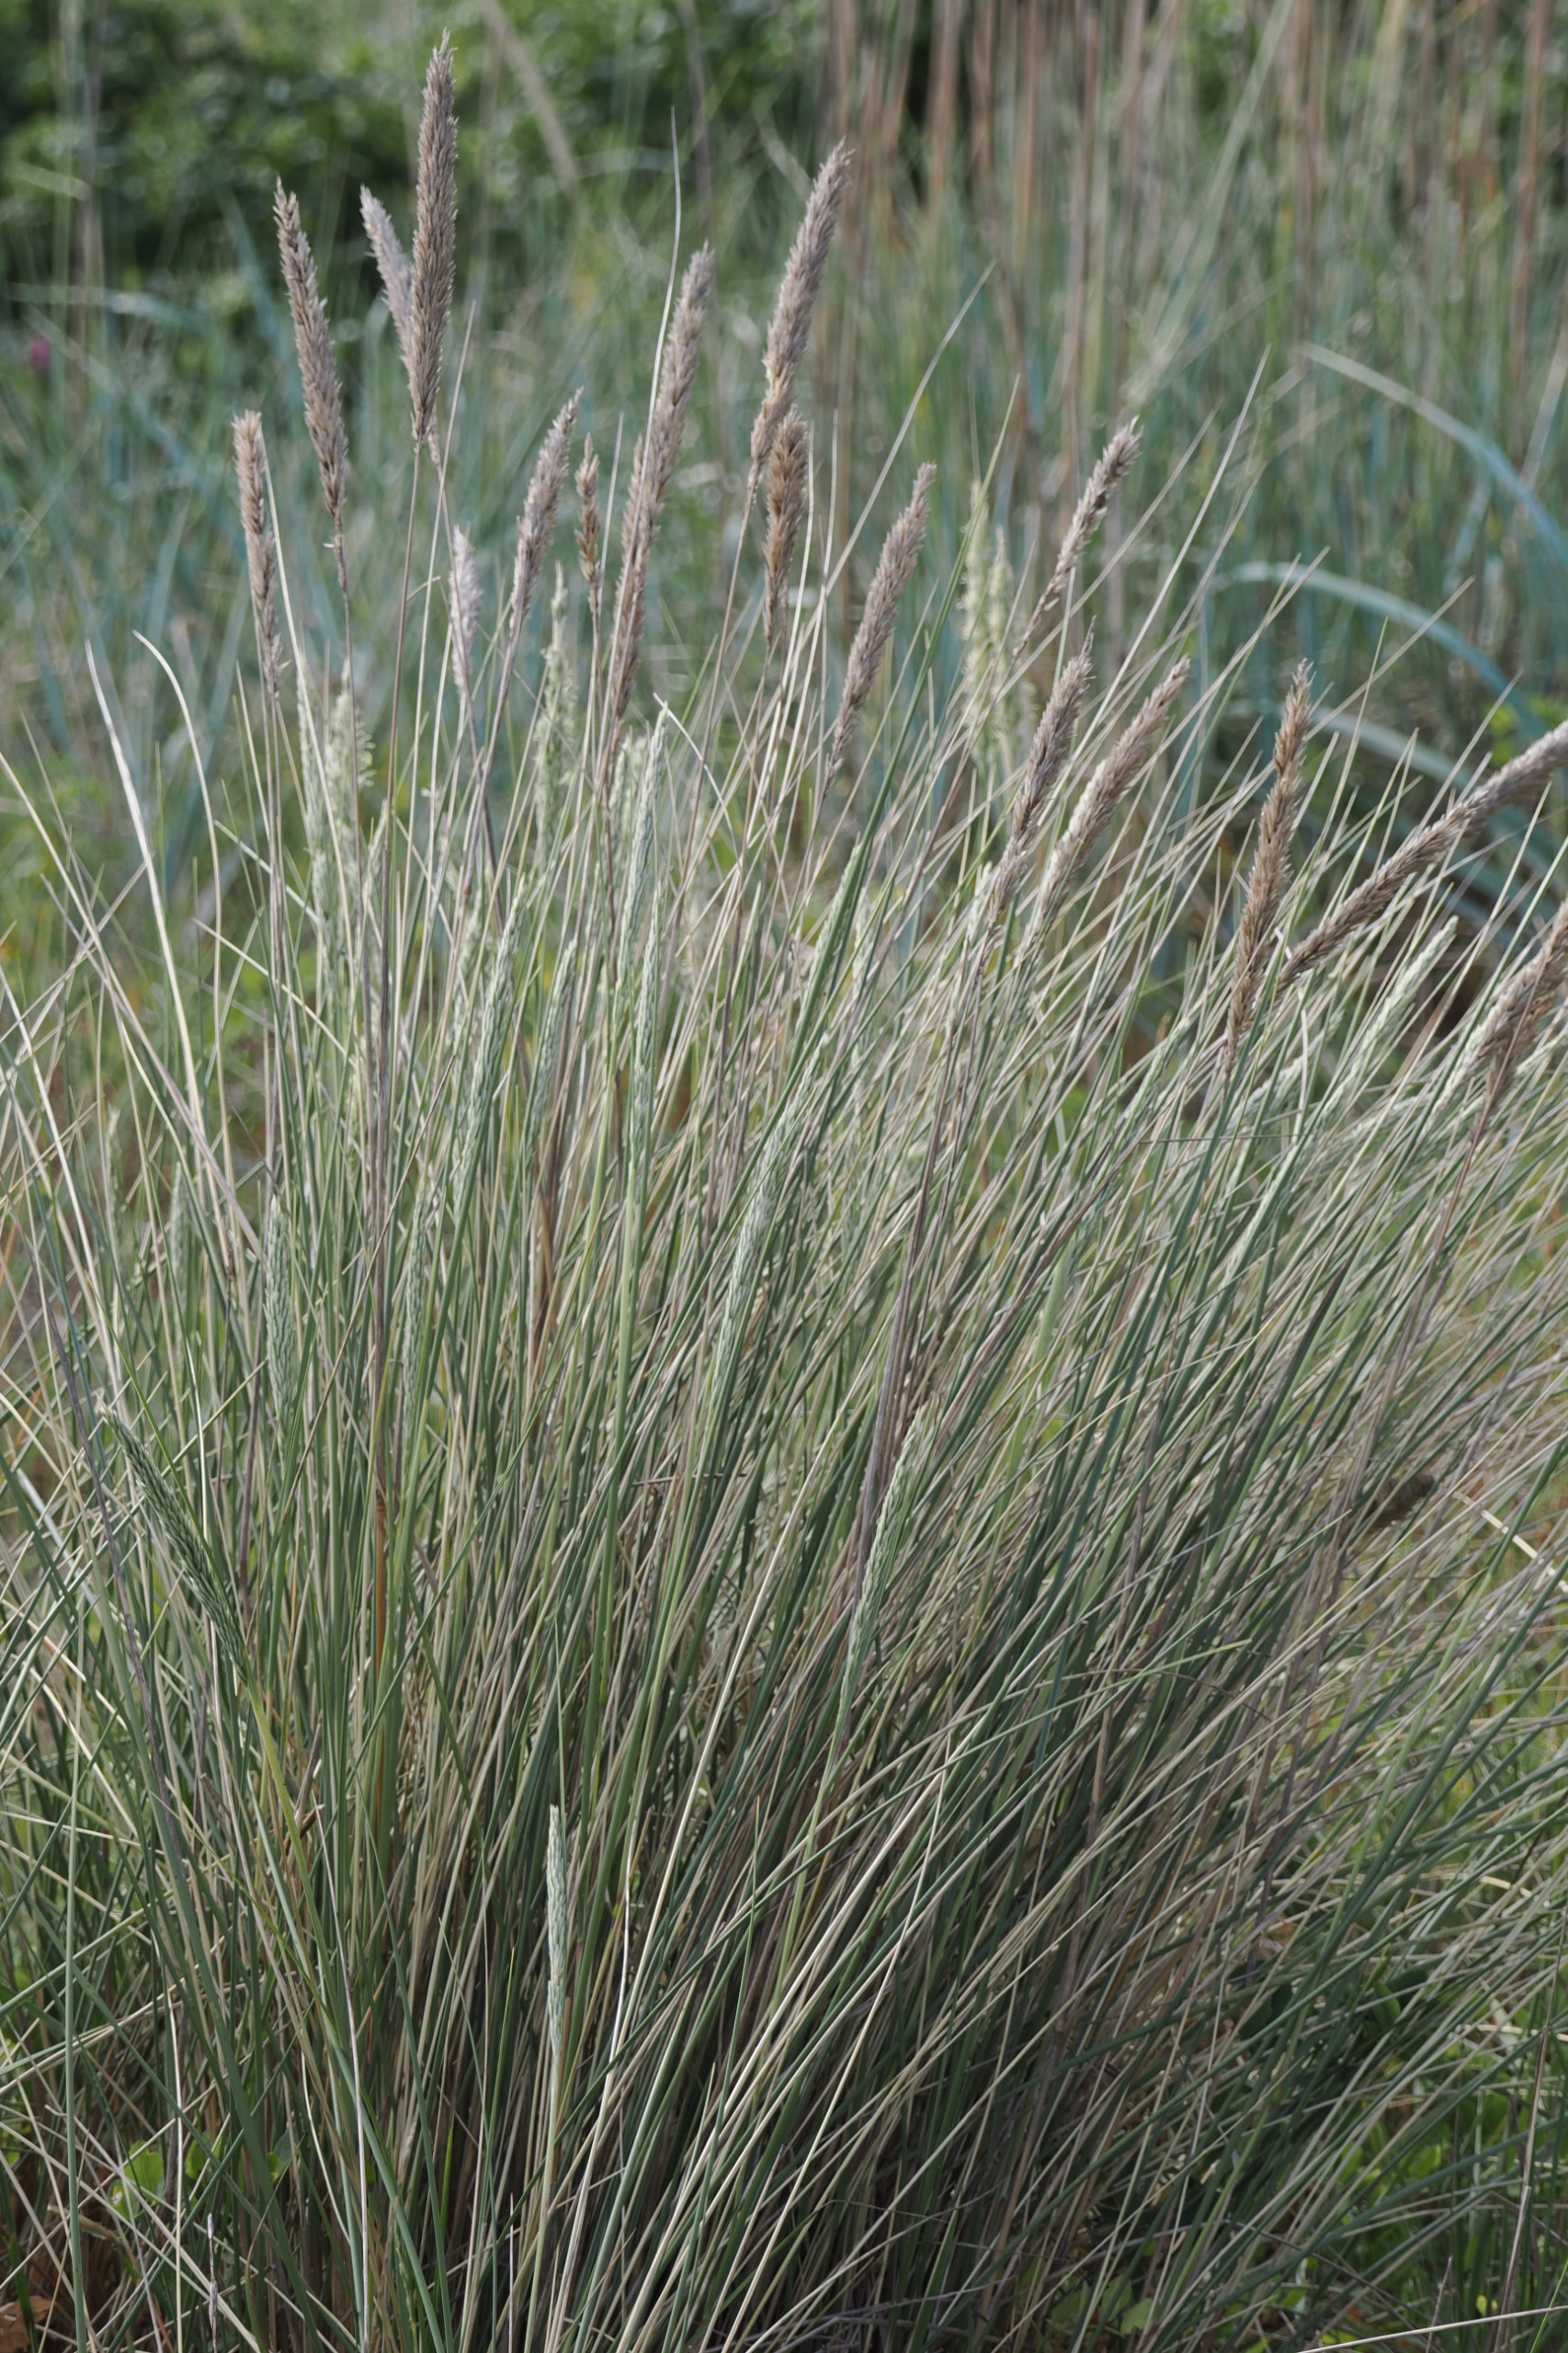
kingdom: Plantae
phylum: Tracheophyta
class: Liliopsida
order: Poales
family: Poaceae
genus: Calamagrostis
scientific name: Calamagrostis arenaria
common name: Sand-hjælme
